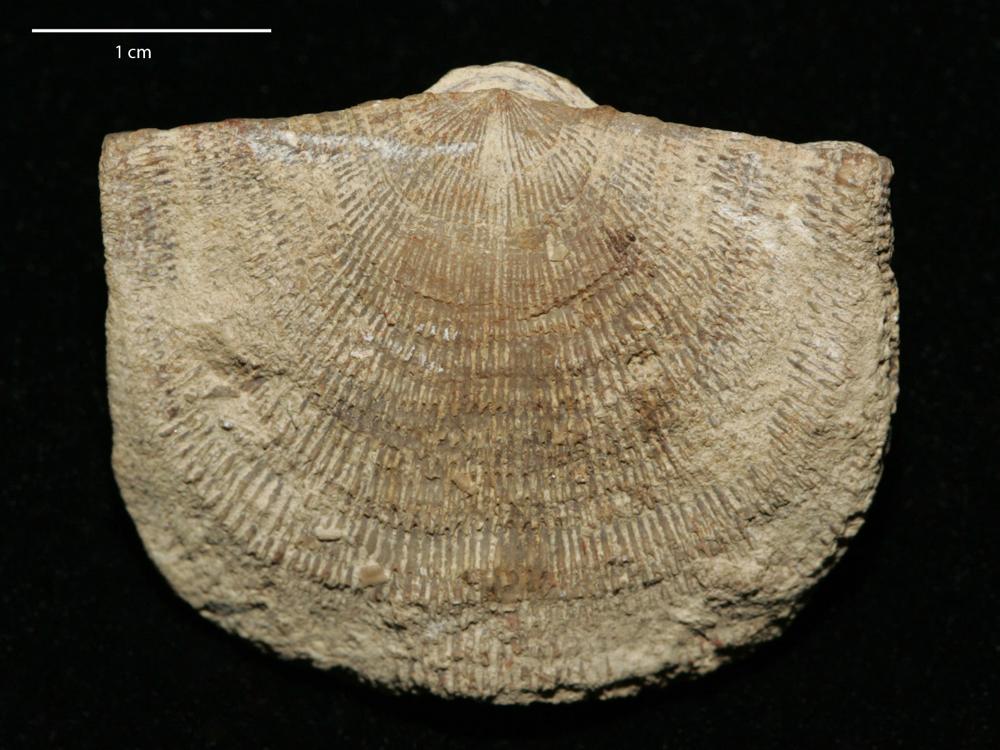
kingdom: Animalia
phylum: Brachiopoda
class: Rhynchonellata
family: Clitambonitidae
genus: Ilmarinia
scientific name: Ilmarinia Orthisina sinuata
